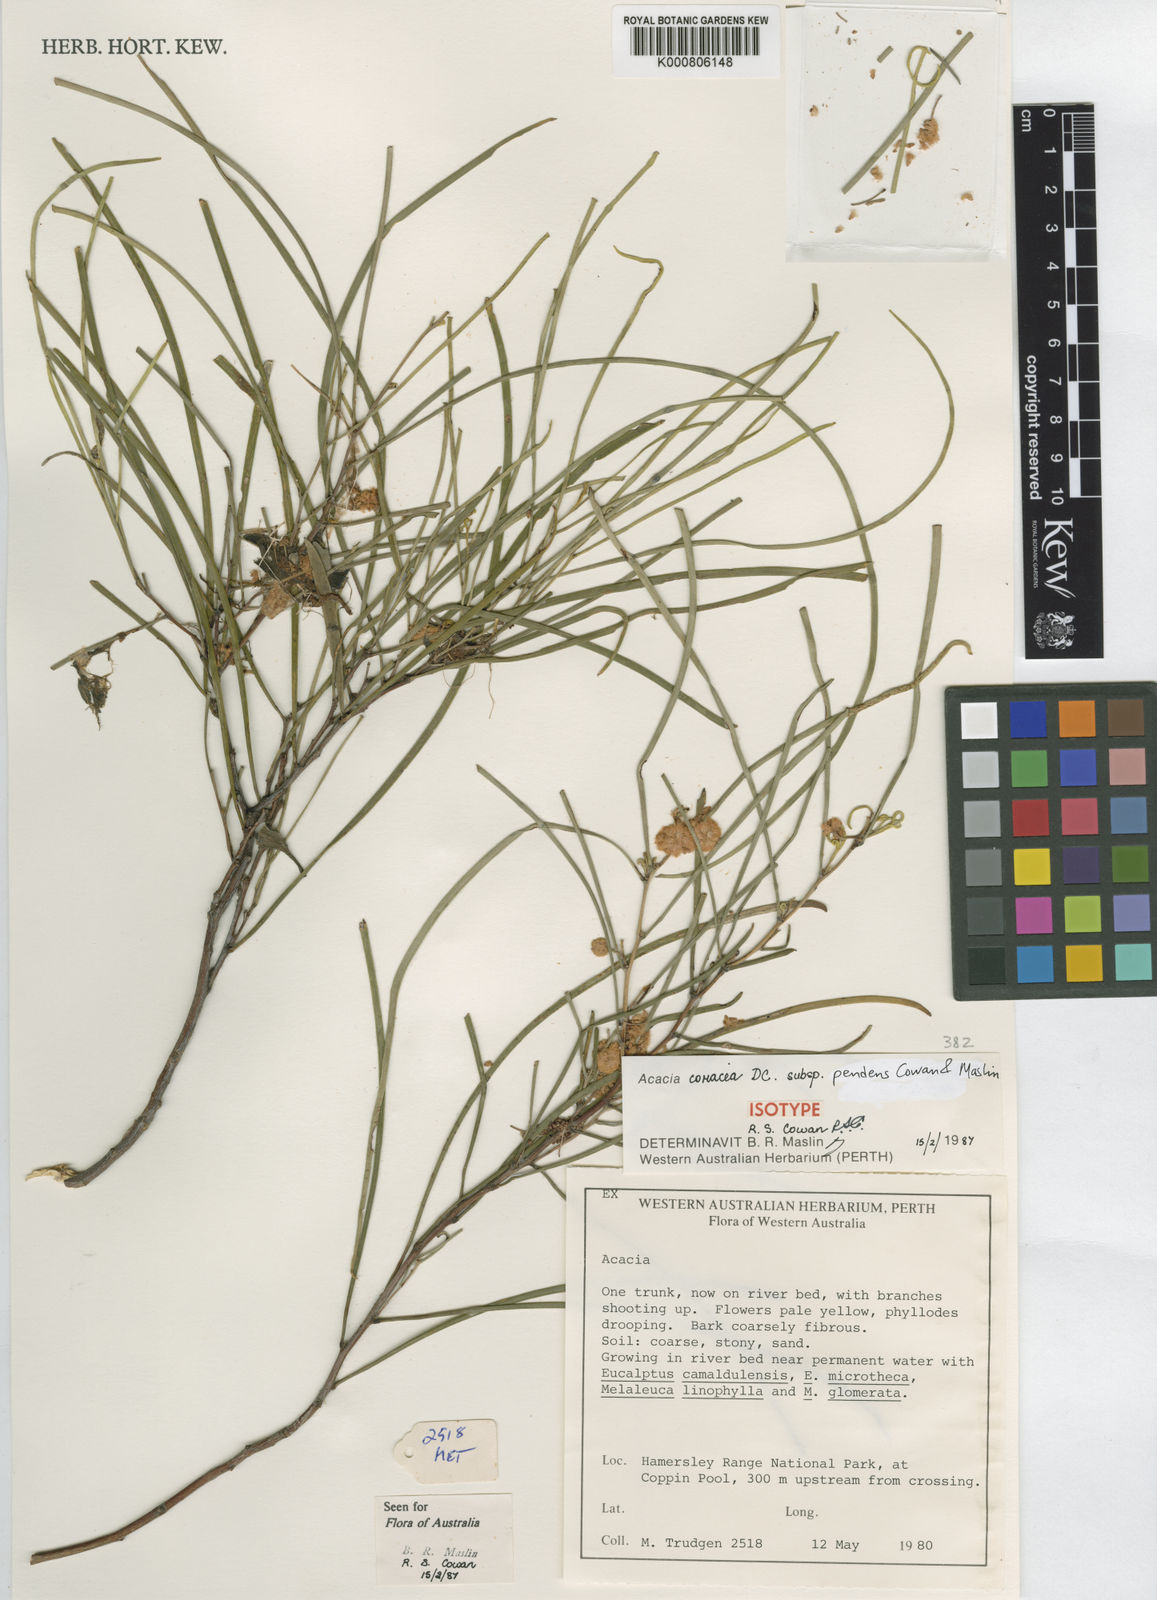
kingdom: Plantae
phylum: Tracheophyta
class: Magnoliopsida
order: Fabales
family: Fabaceae
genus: Acacia
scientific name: Acacia coriacea
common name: Desert-oak
